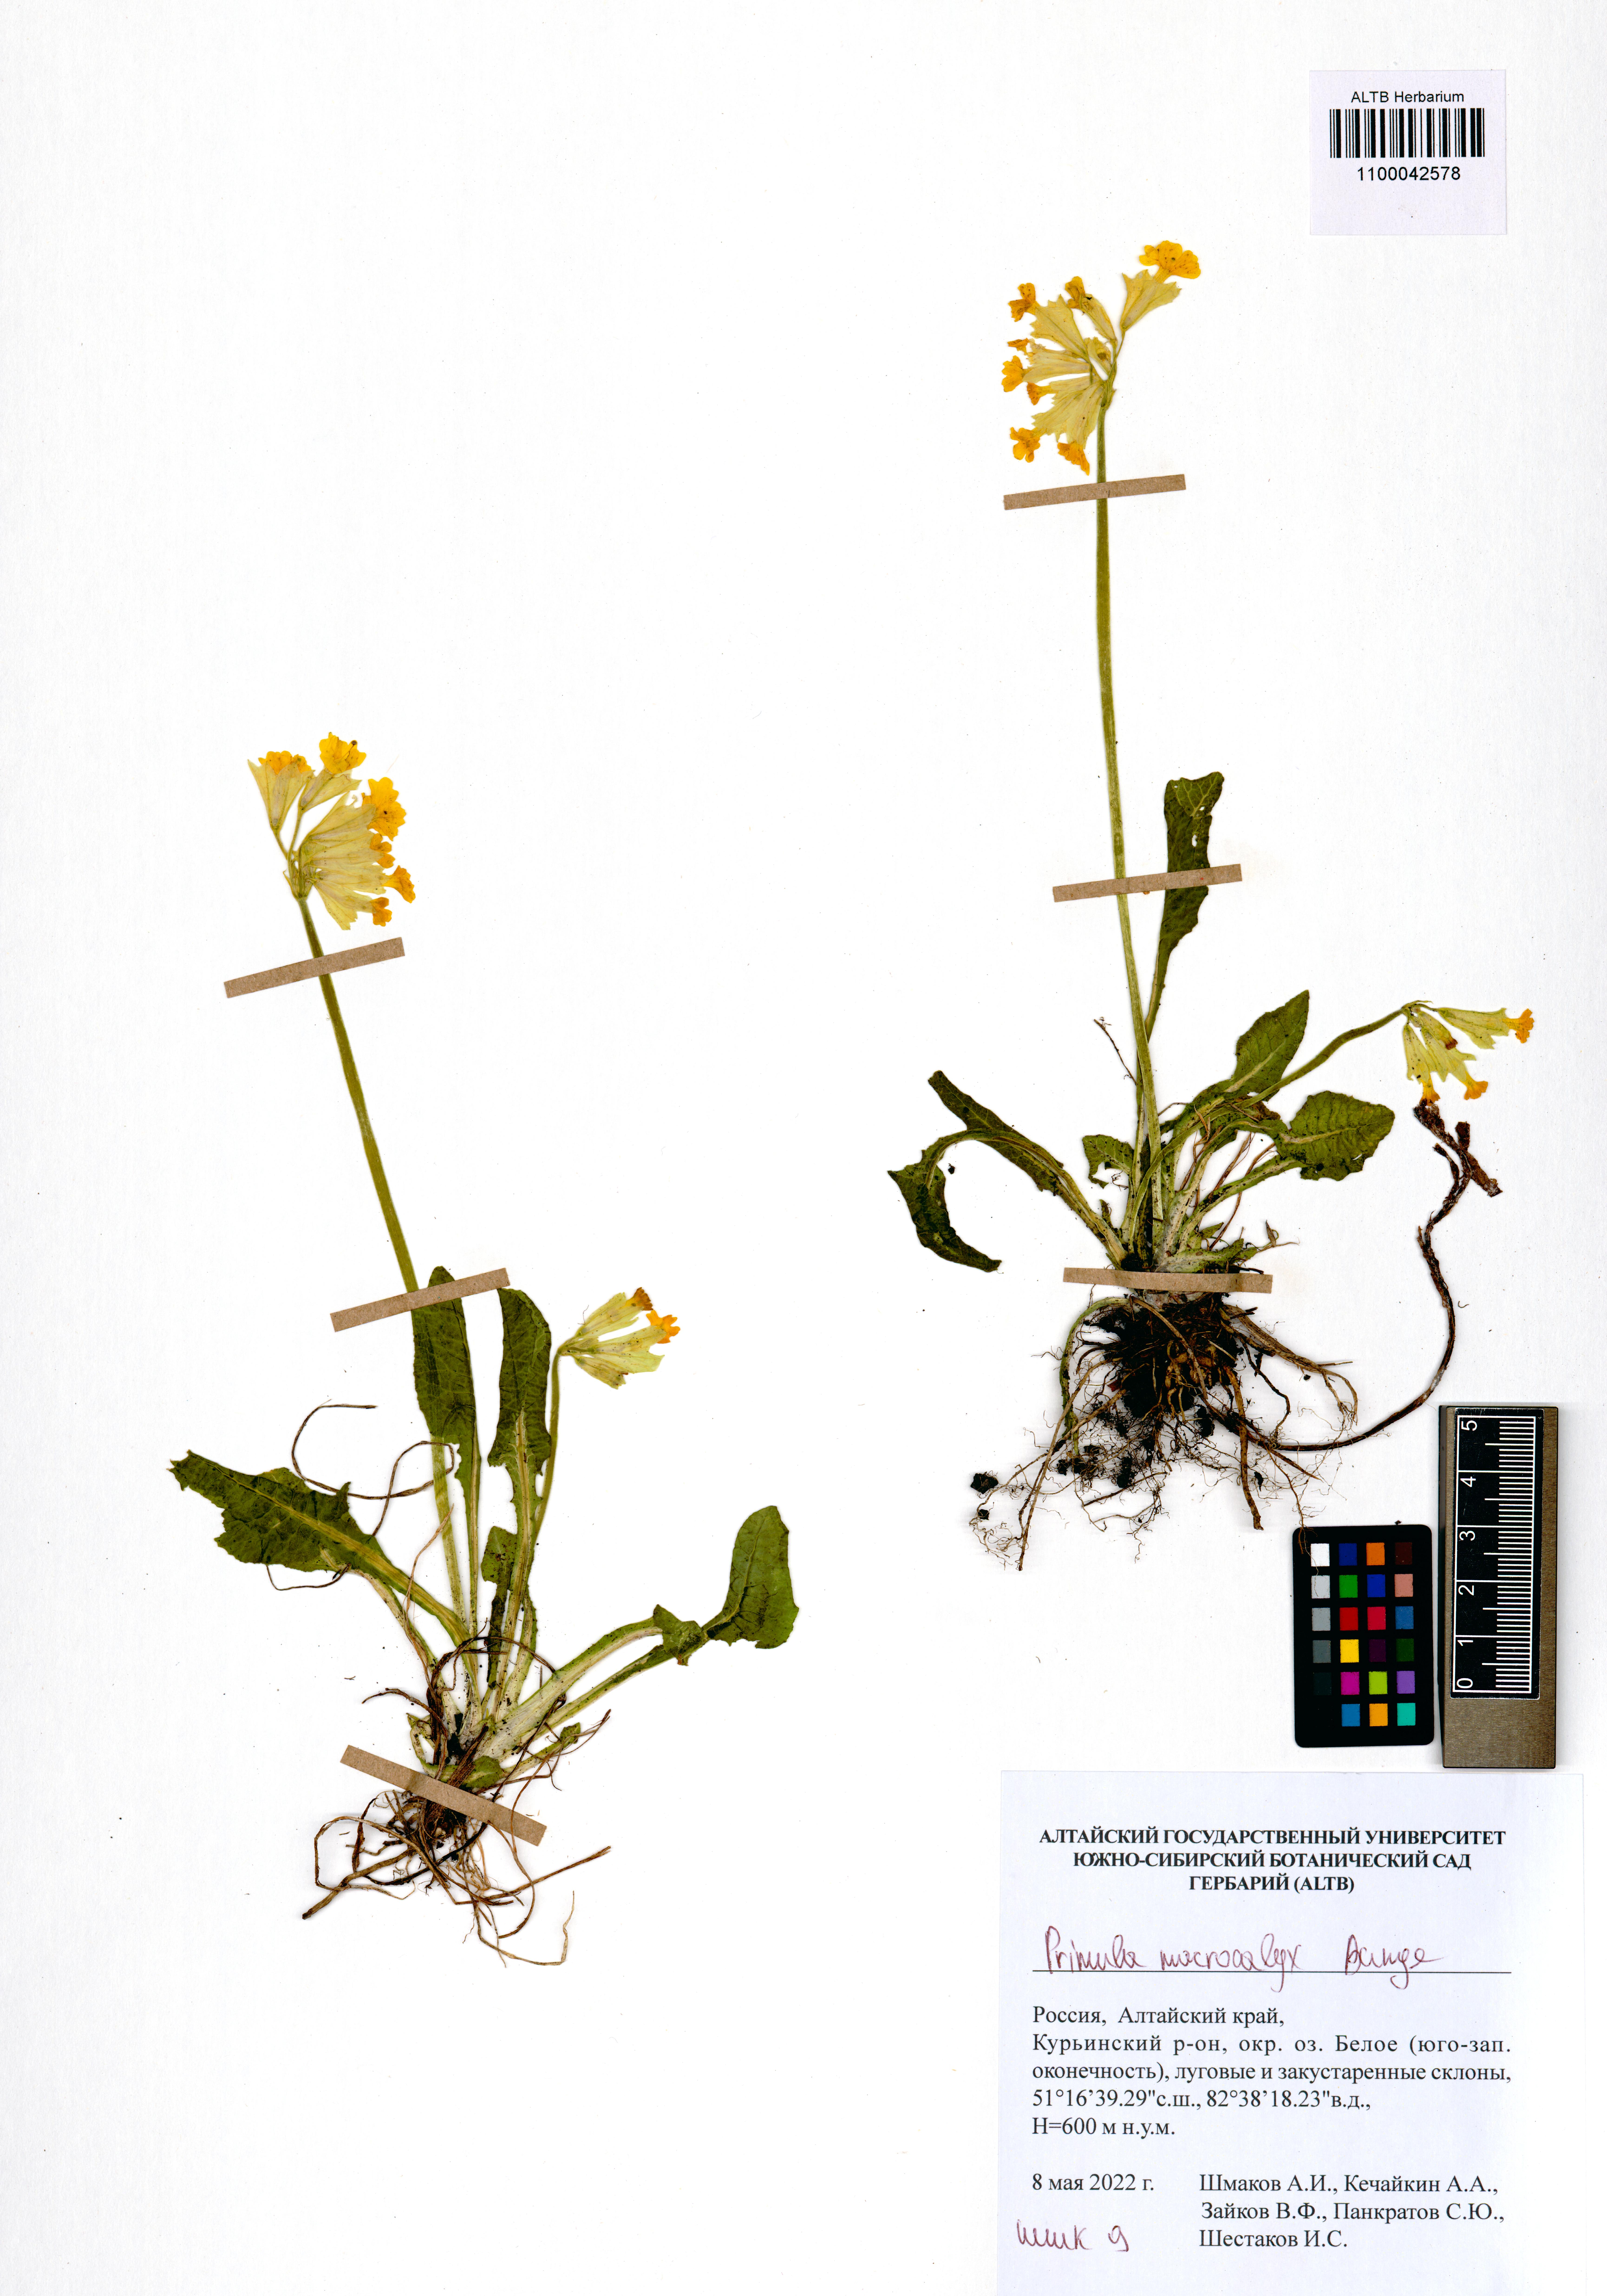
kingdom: Plantae
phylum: Tracheophyta
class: Magnoliopsida
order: Ericales
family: Primulaceae
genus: Primula
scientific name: Primula veris
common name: Cowslip
